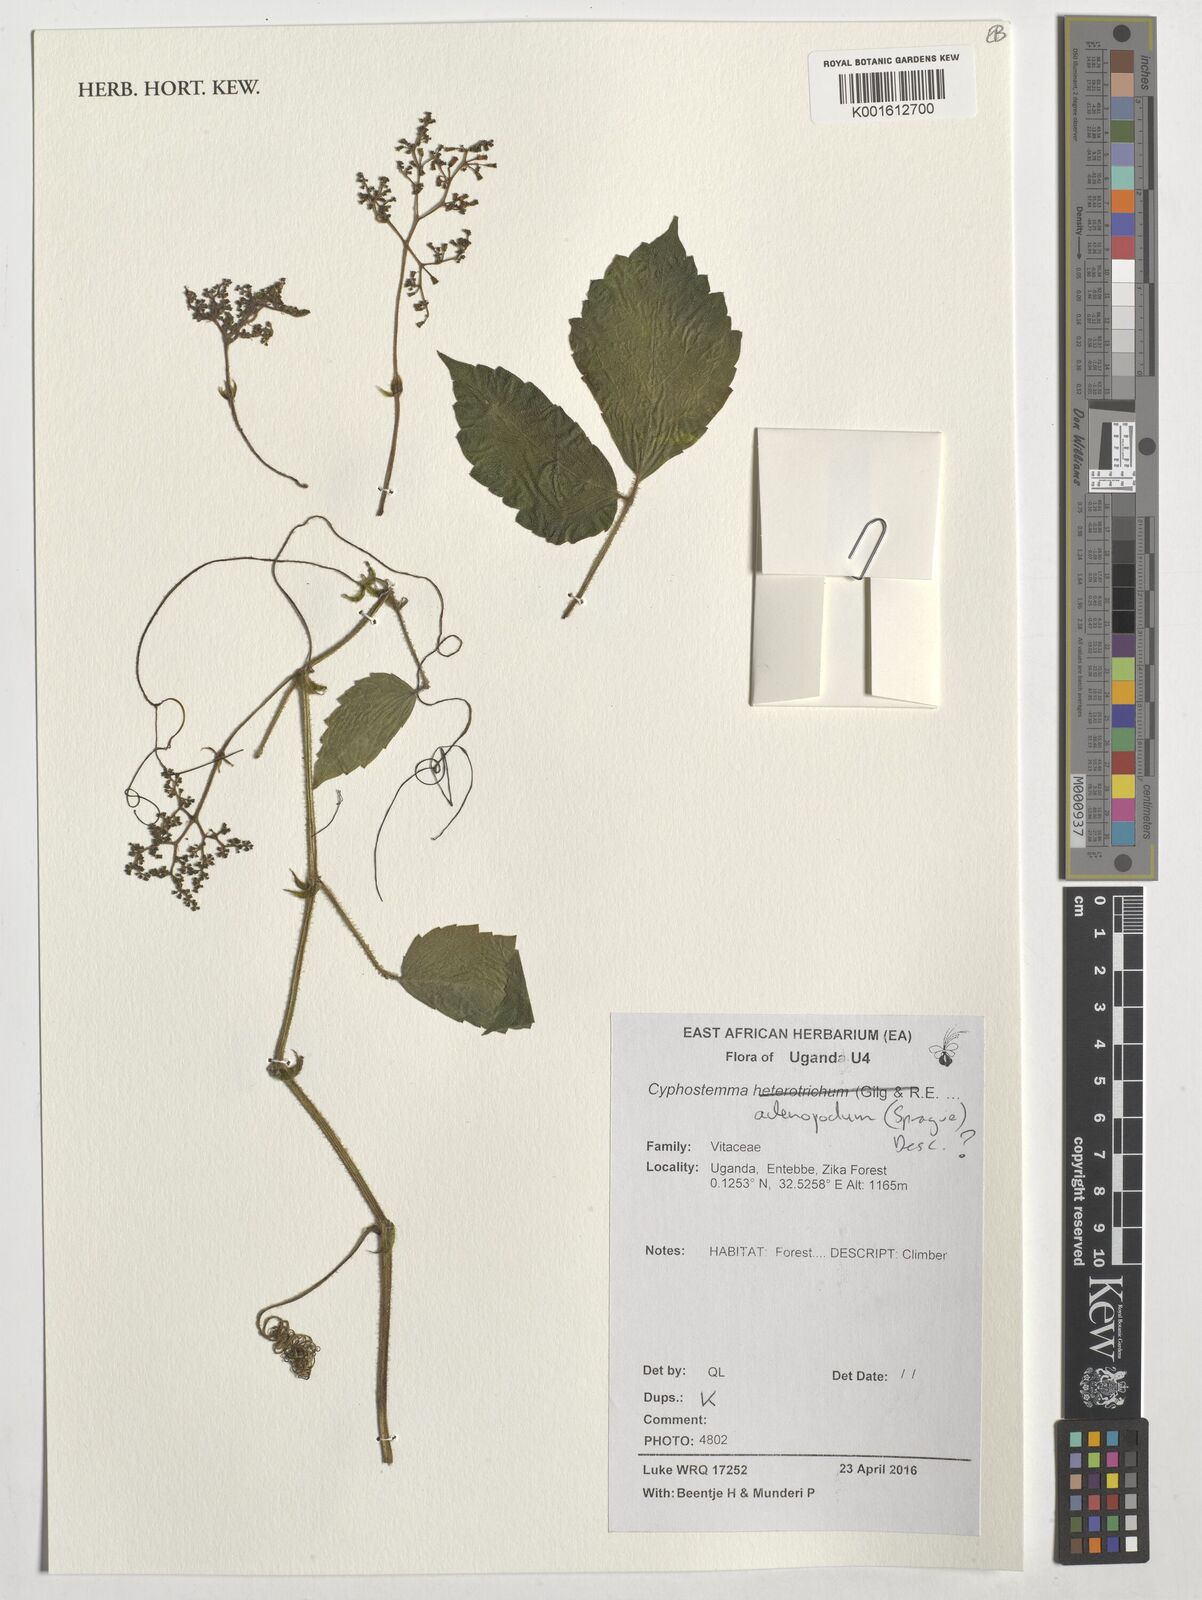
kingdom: Plantae
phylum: Tracheophyta
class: Magnoliopsida
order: Vitales
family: Vitaceae
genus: Cyphostemma
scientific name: Cyphostemma adenopodum
